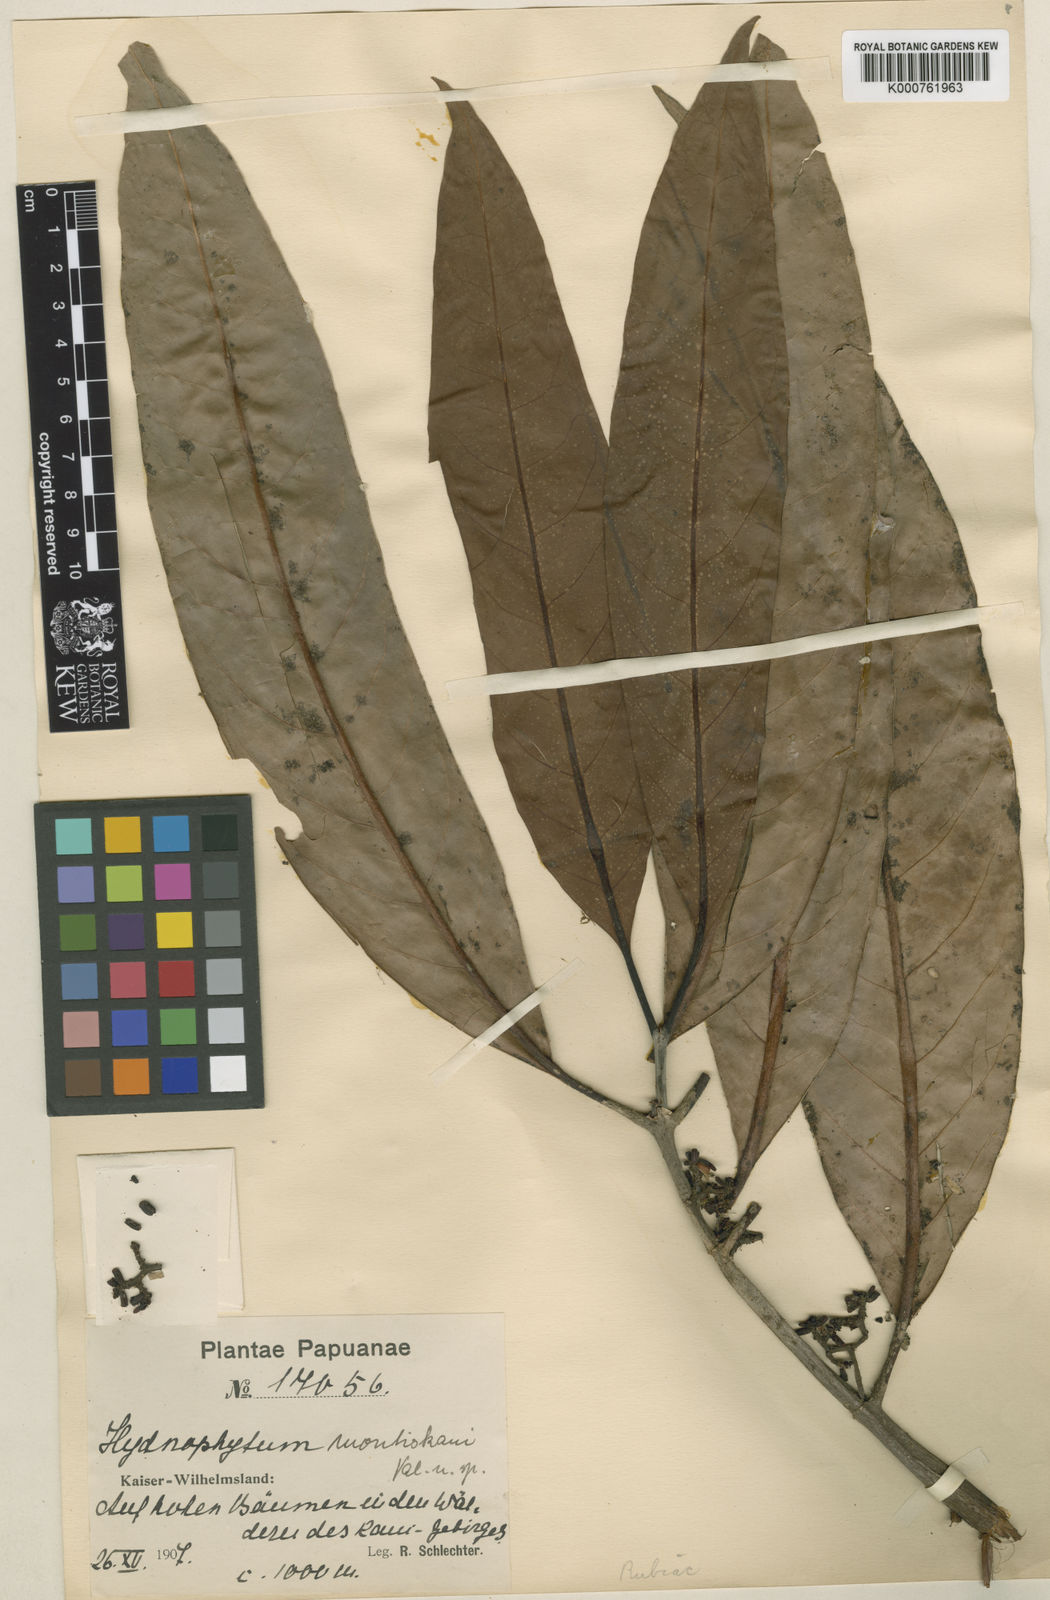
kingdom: Plantae
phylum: Tracheophyta
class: Magnoliopsida
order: Gentianales
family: Rubiaceae
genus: Hydnophytum
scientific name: Hydnophytum radicans
